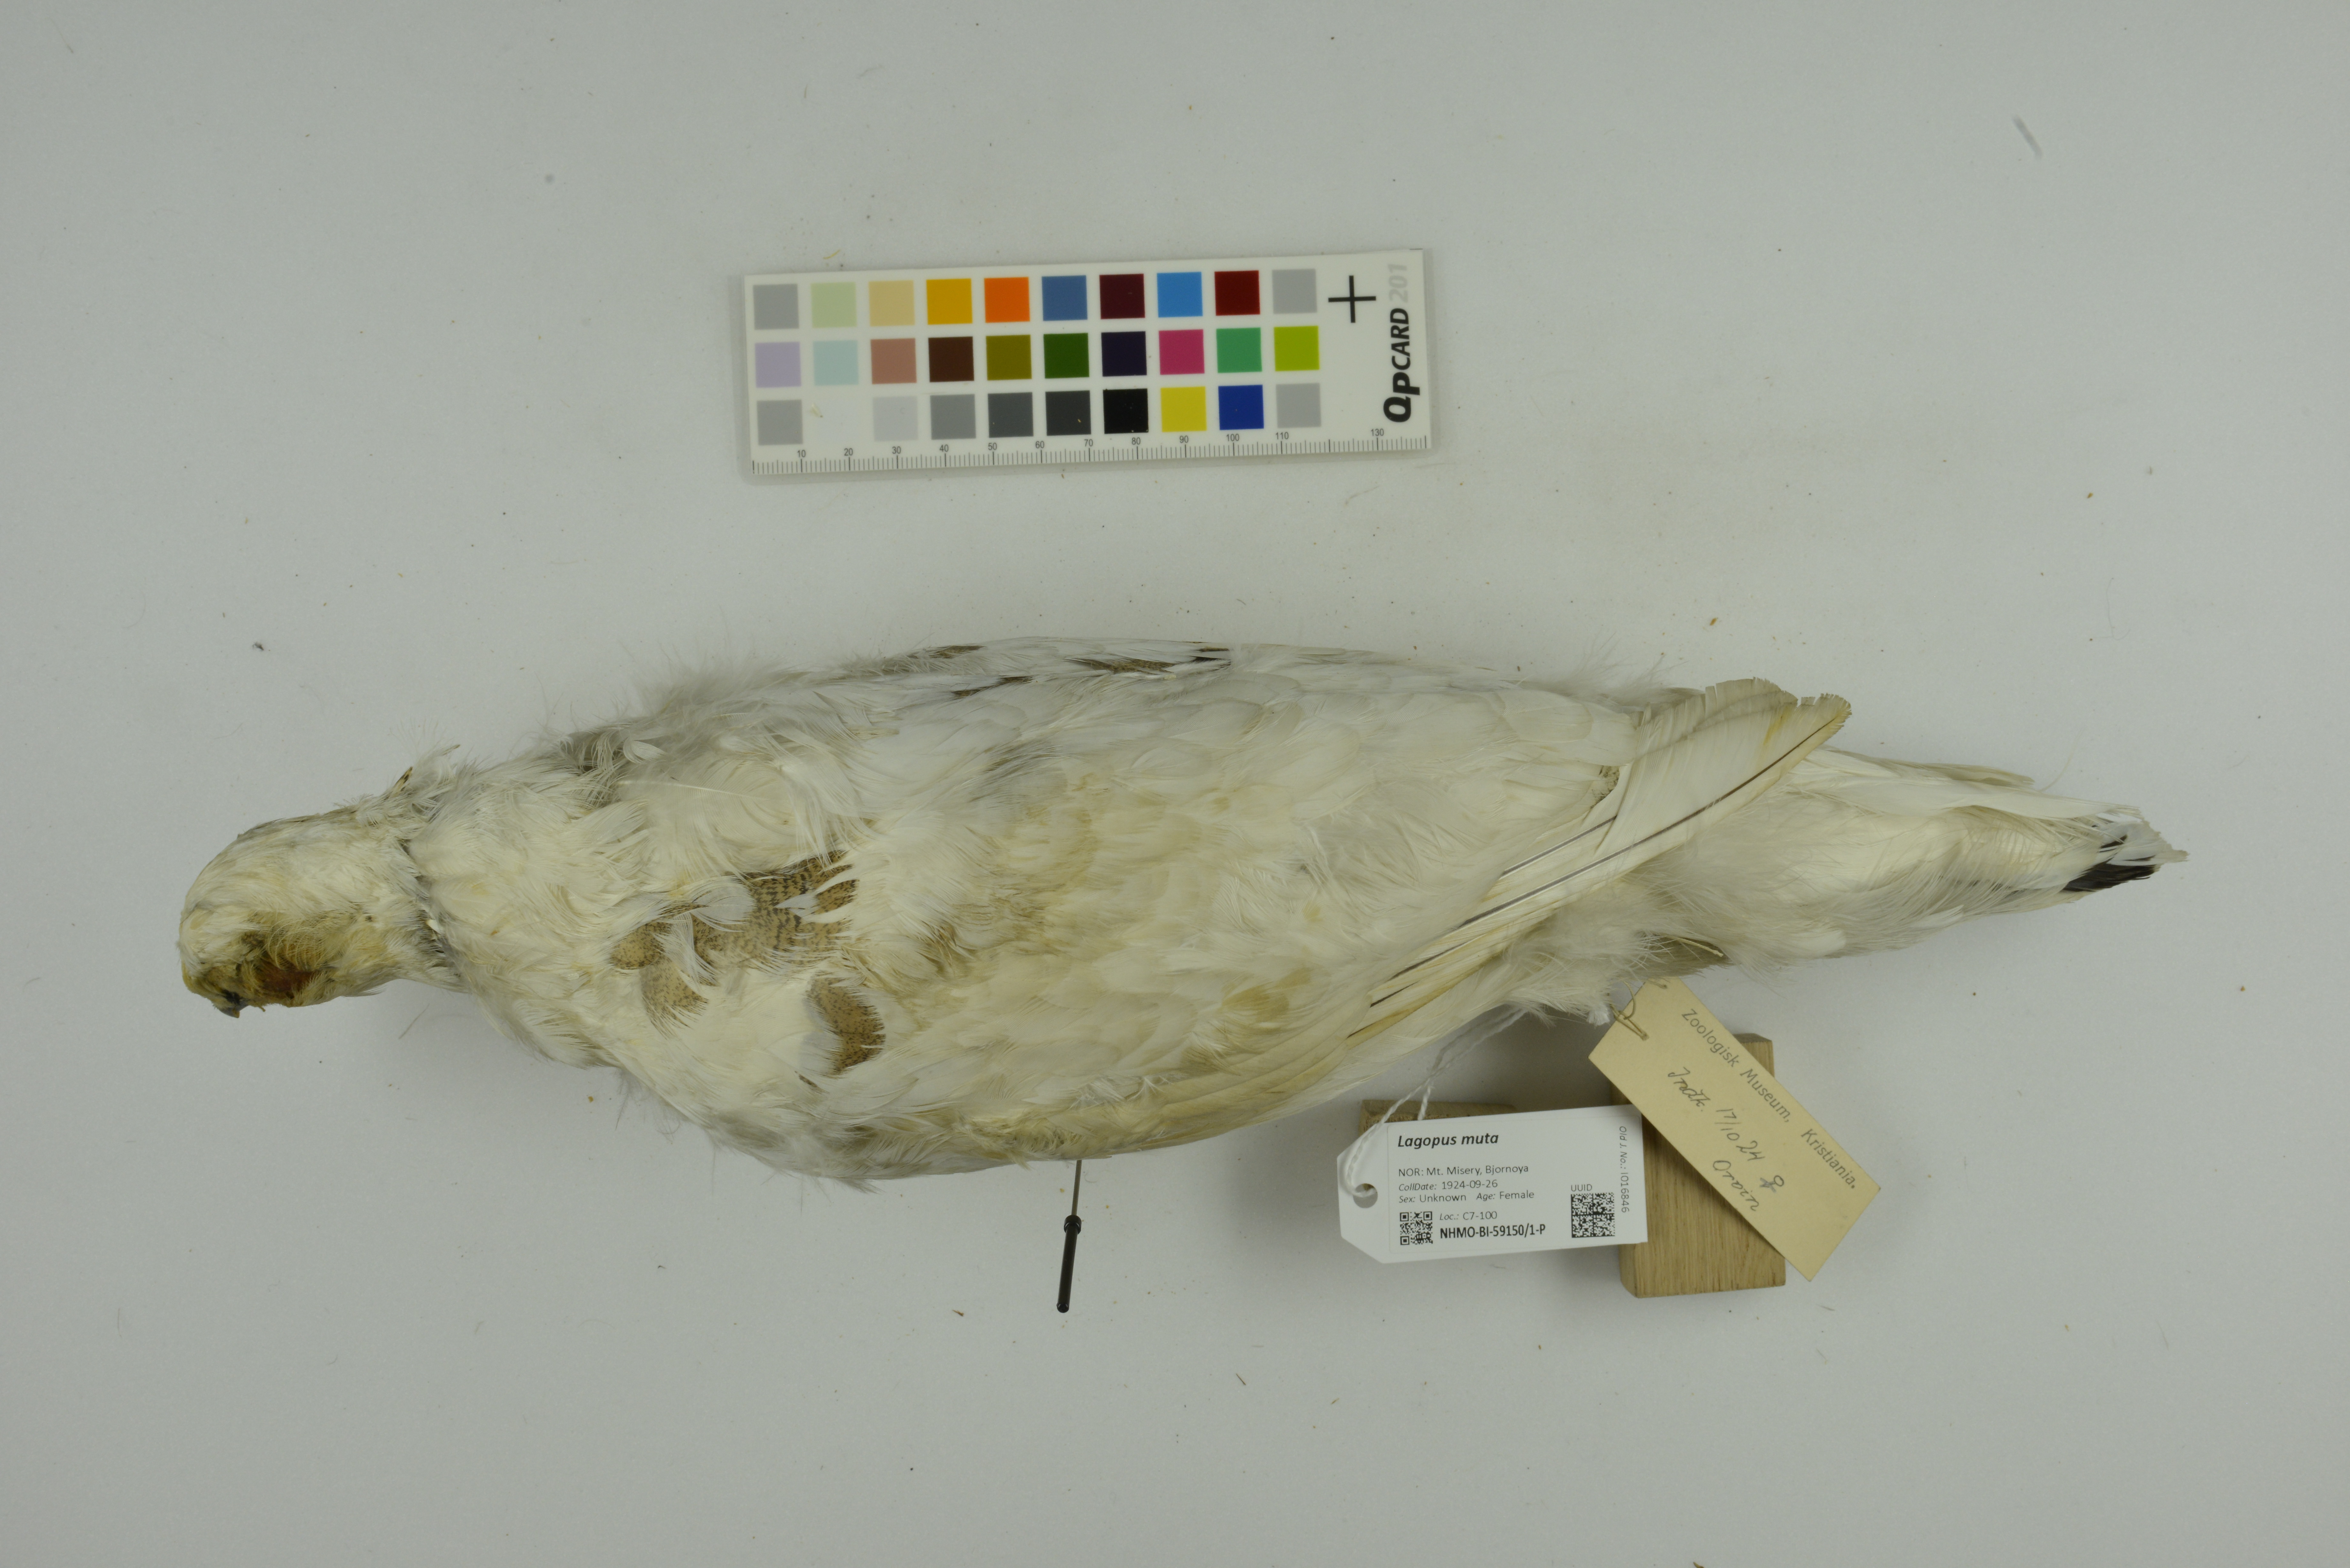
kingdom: Animalia
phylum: Chordata
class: Aves
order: Galliformes
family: Phasianidae
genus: Lagopus
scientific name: Lagopus muta
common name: Rock ptarmigan
